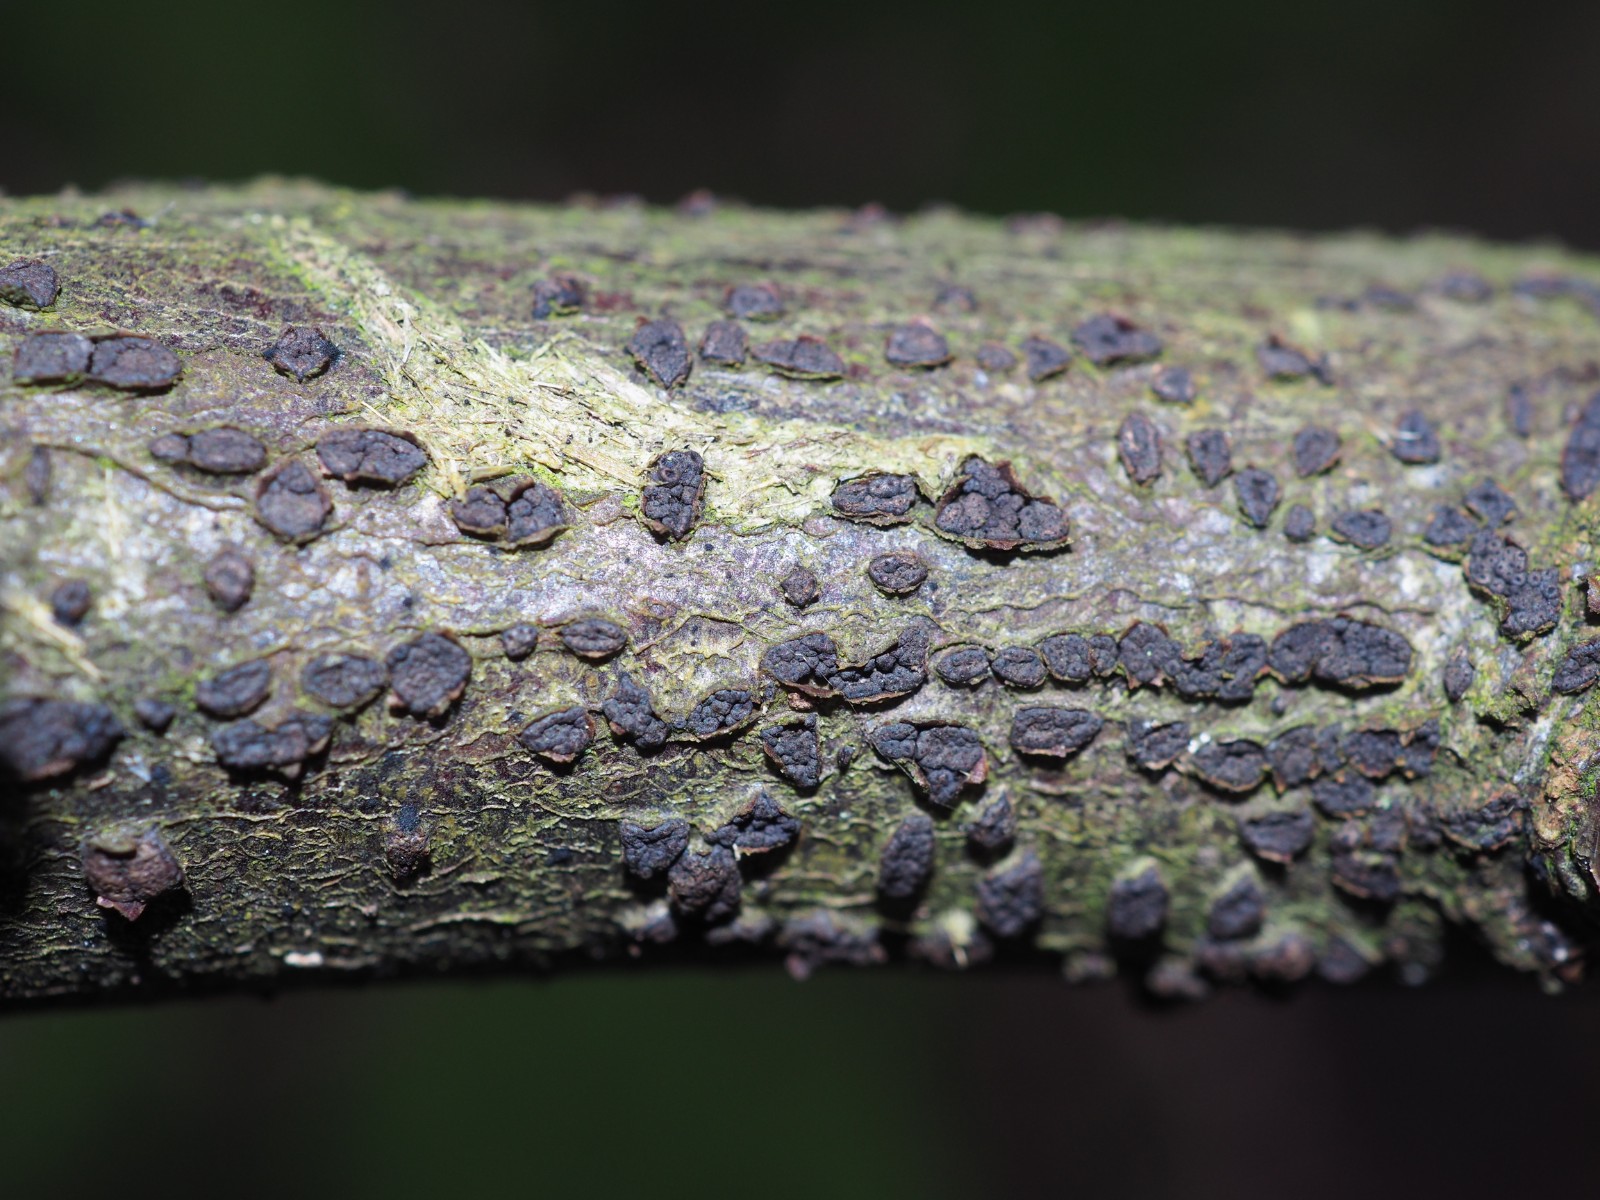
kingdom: Fungi
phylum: Ascomycota
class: Sordariomycetes
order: Xylariales
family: Melogrammataceae
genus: Melogramma
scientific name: Melogramma campylosporum
